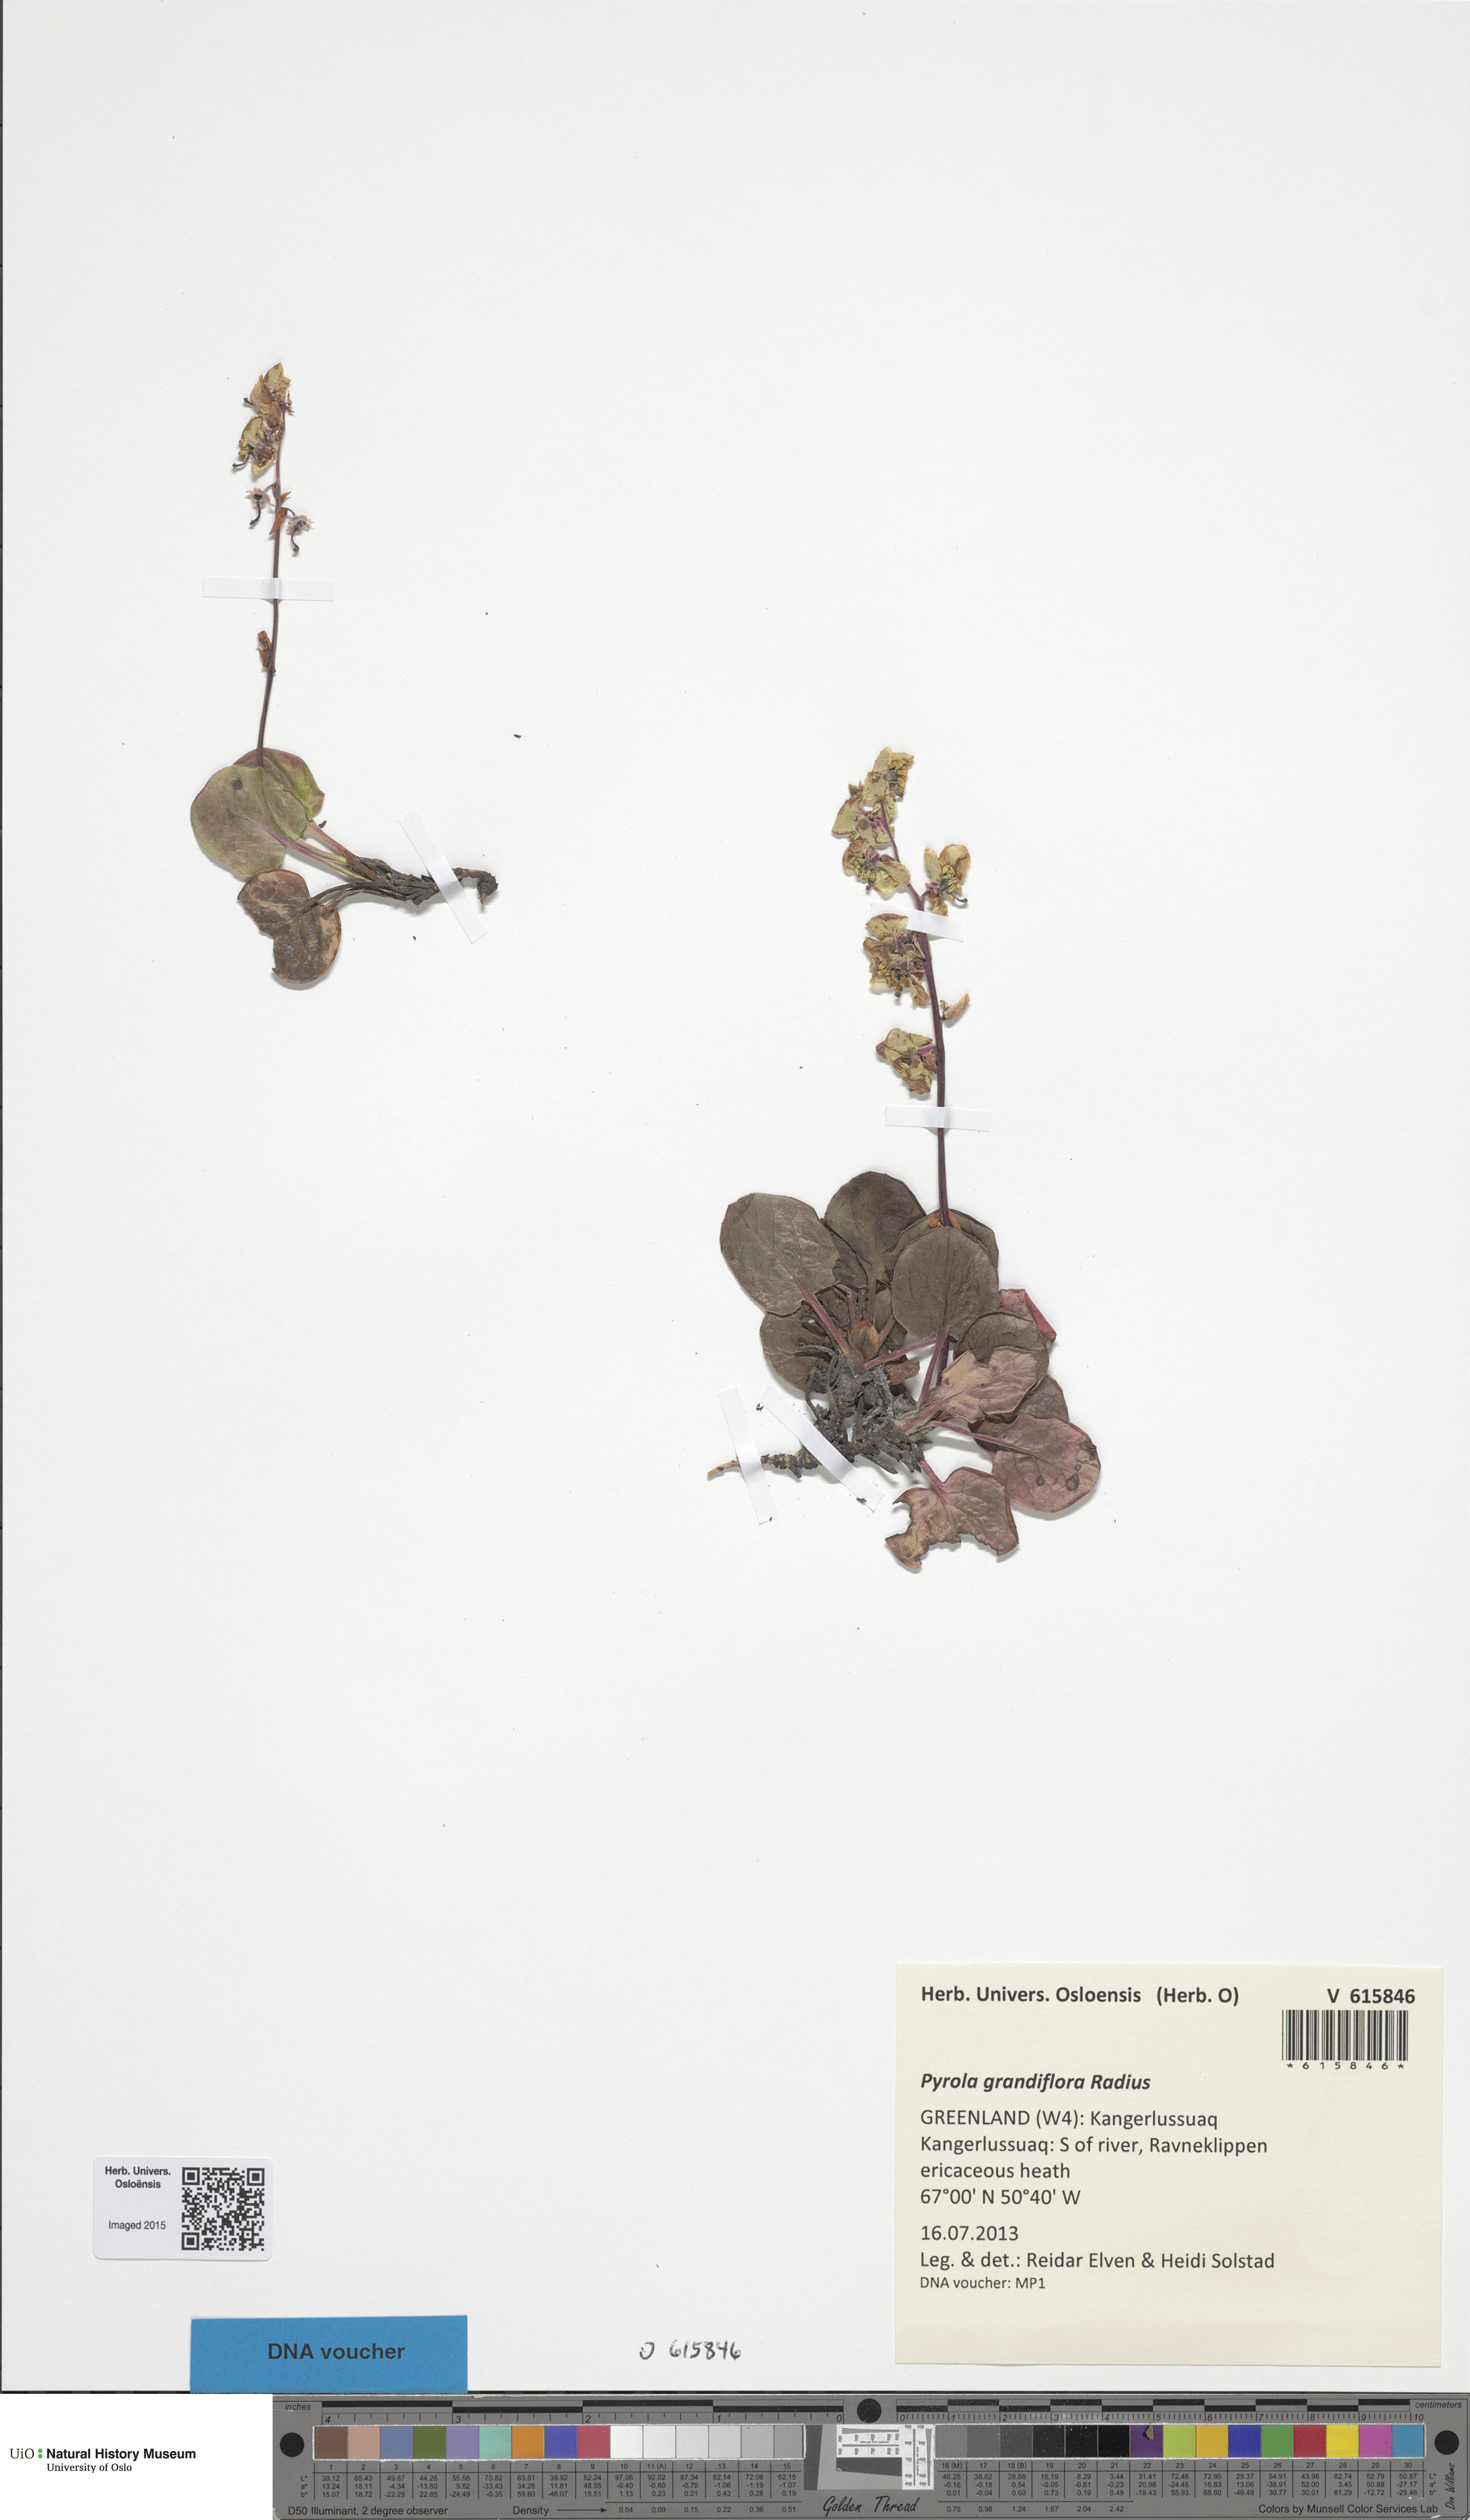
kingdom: Plantae
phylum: Tracheophyta
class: Magnoliopsida
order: Ericales
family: Ericaceae
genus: Pyrola
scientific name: Pyrola grandiflora
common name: Arctic pyrola
